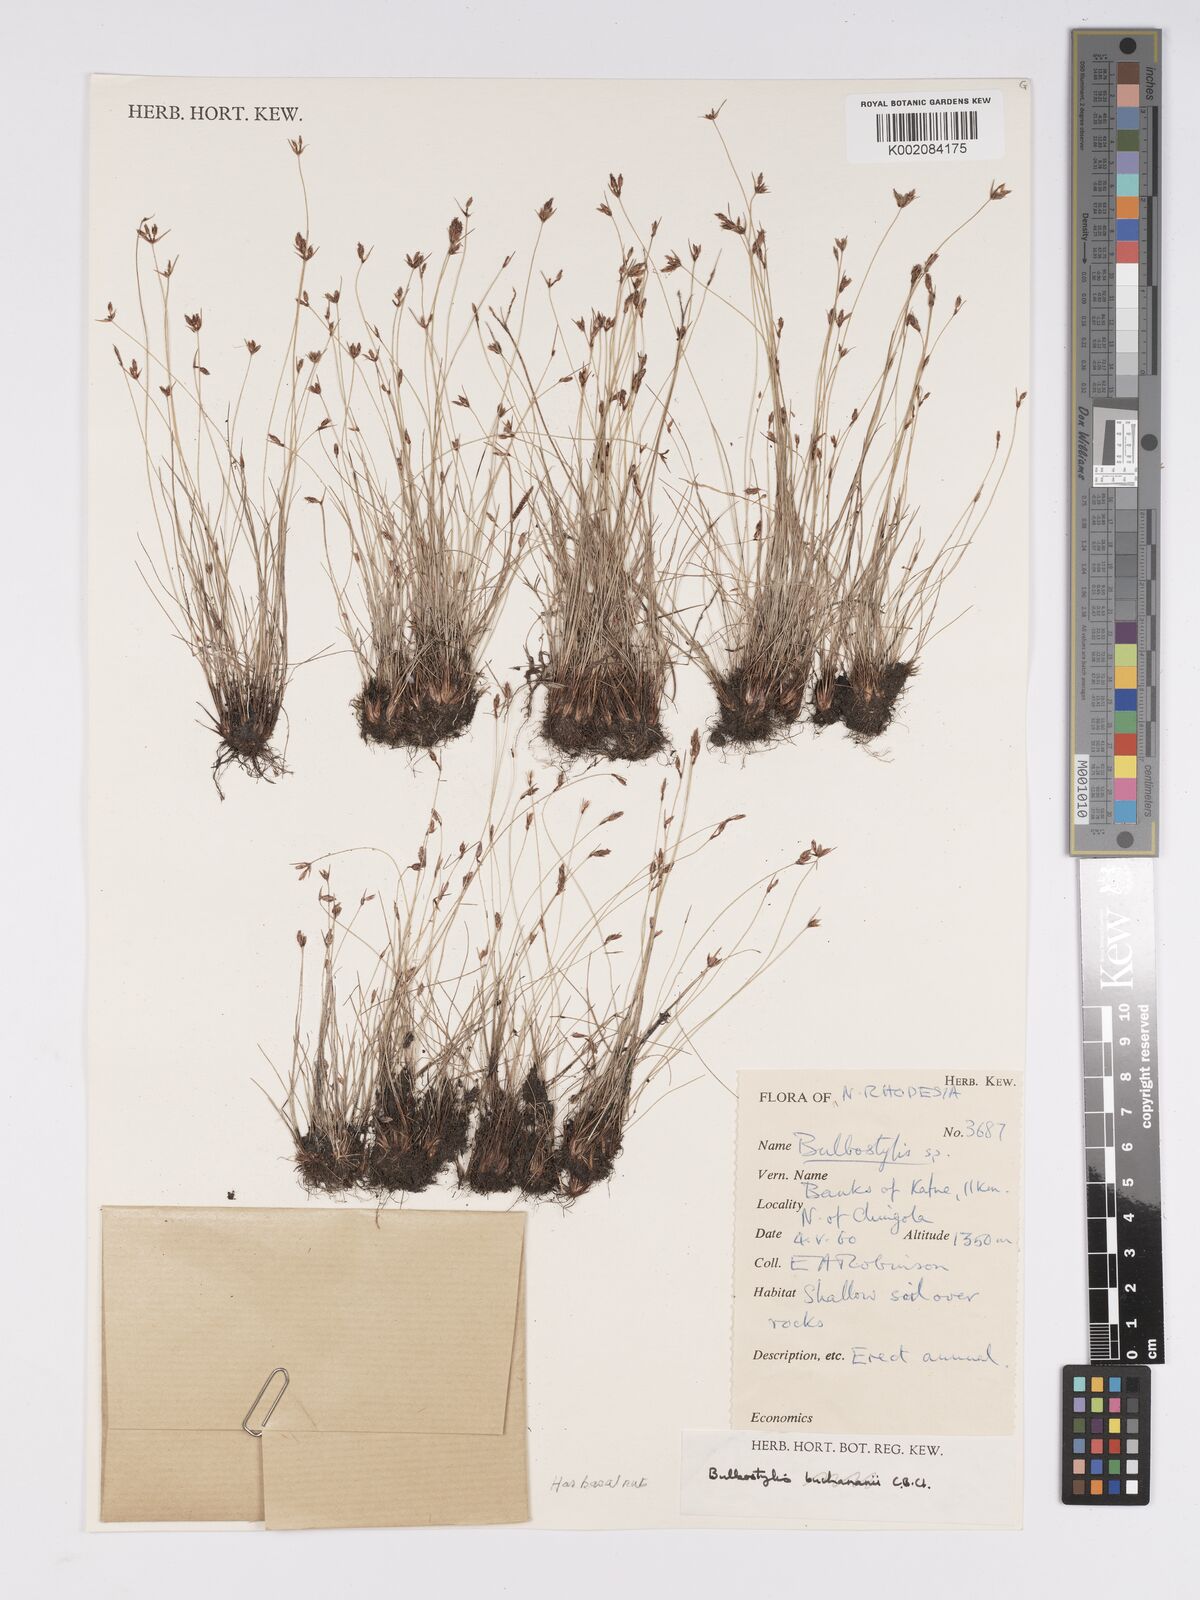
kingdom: Plantae
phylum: Tracheophyta
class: Liliopsida
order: Poales
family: Cyperaceae
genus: Bulbostylis
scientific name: Bulbostylis
